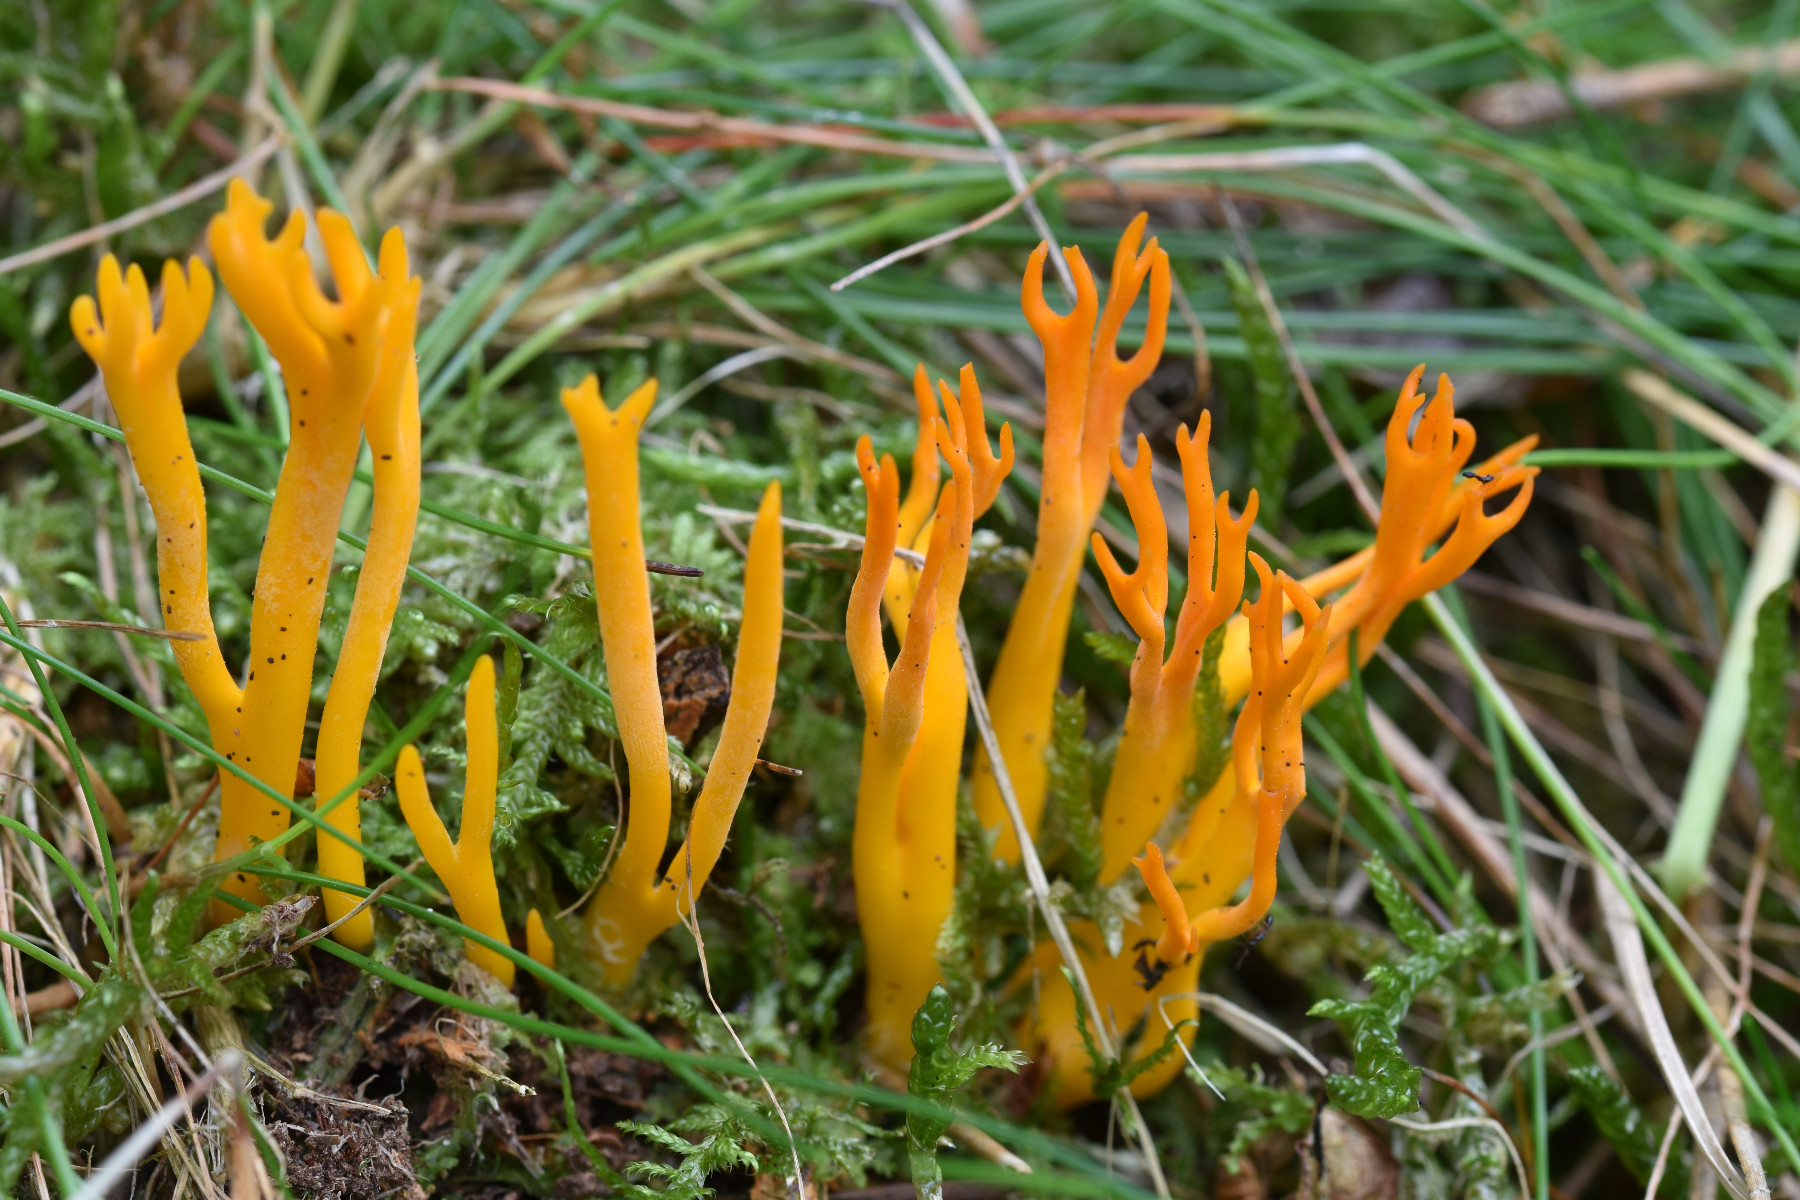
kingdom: Fungi
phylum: Basidiomycota
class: Dacrymycetes
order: Dacrymycetales
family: Dacrymycetaceae
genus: Calocera
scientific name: Calocera viscosa
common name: almindelig guldgaffel
